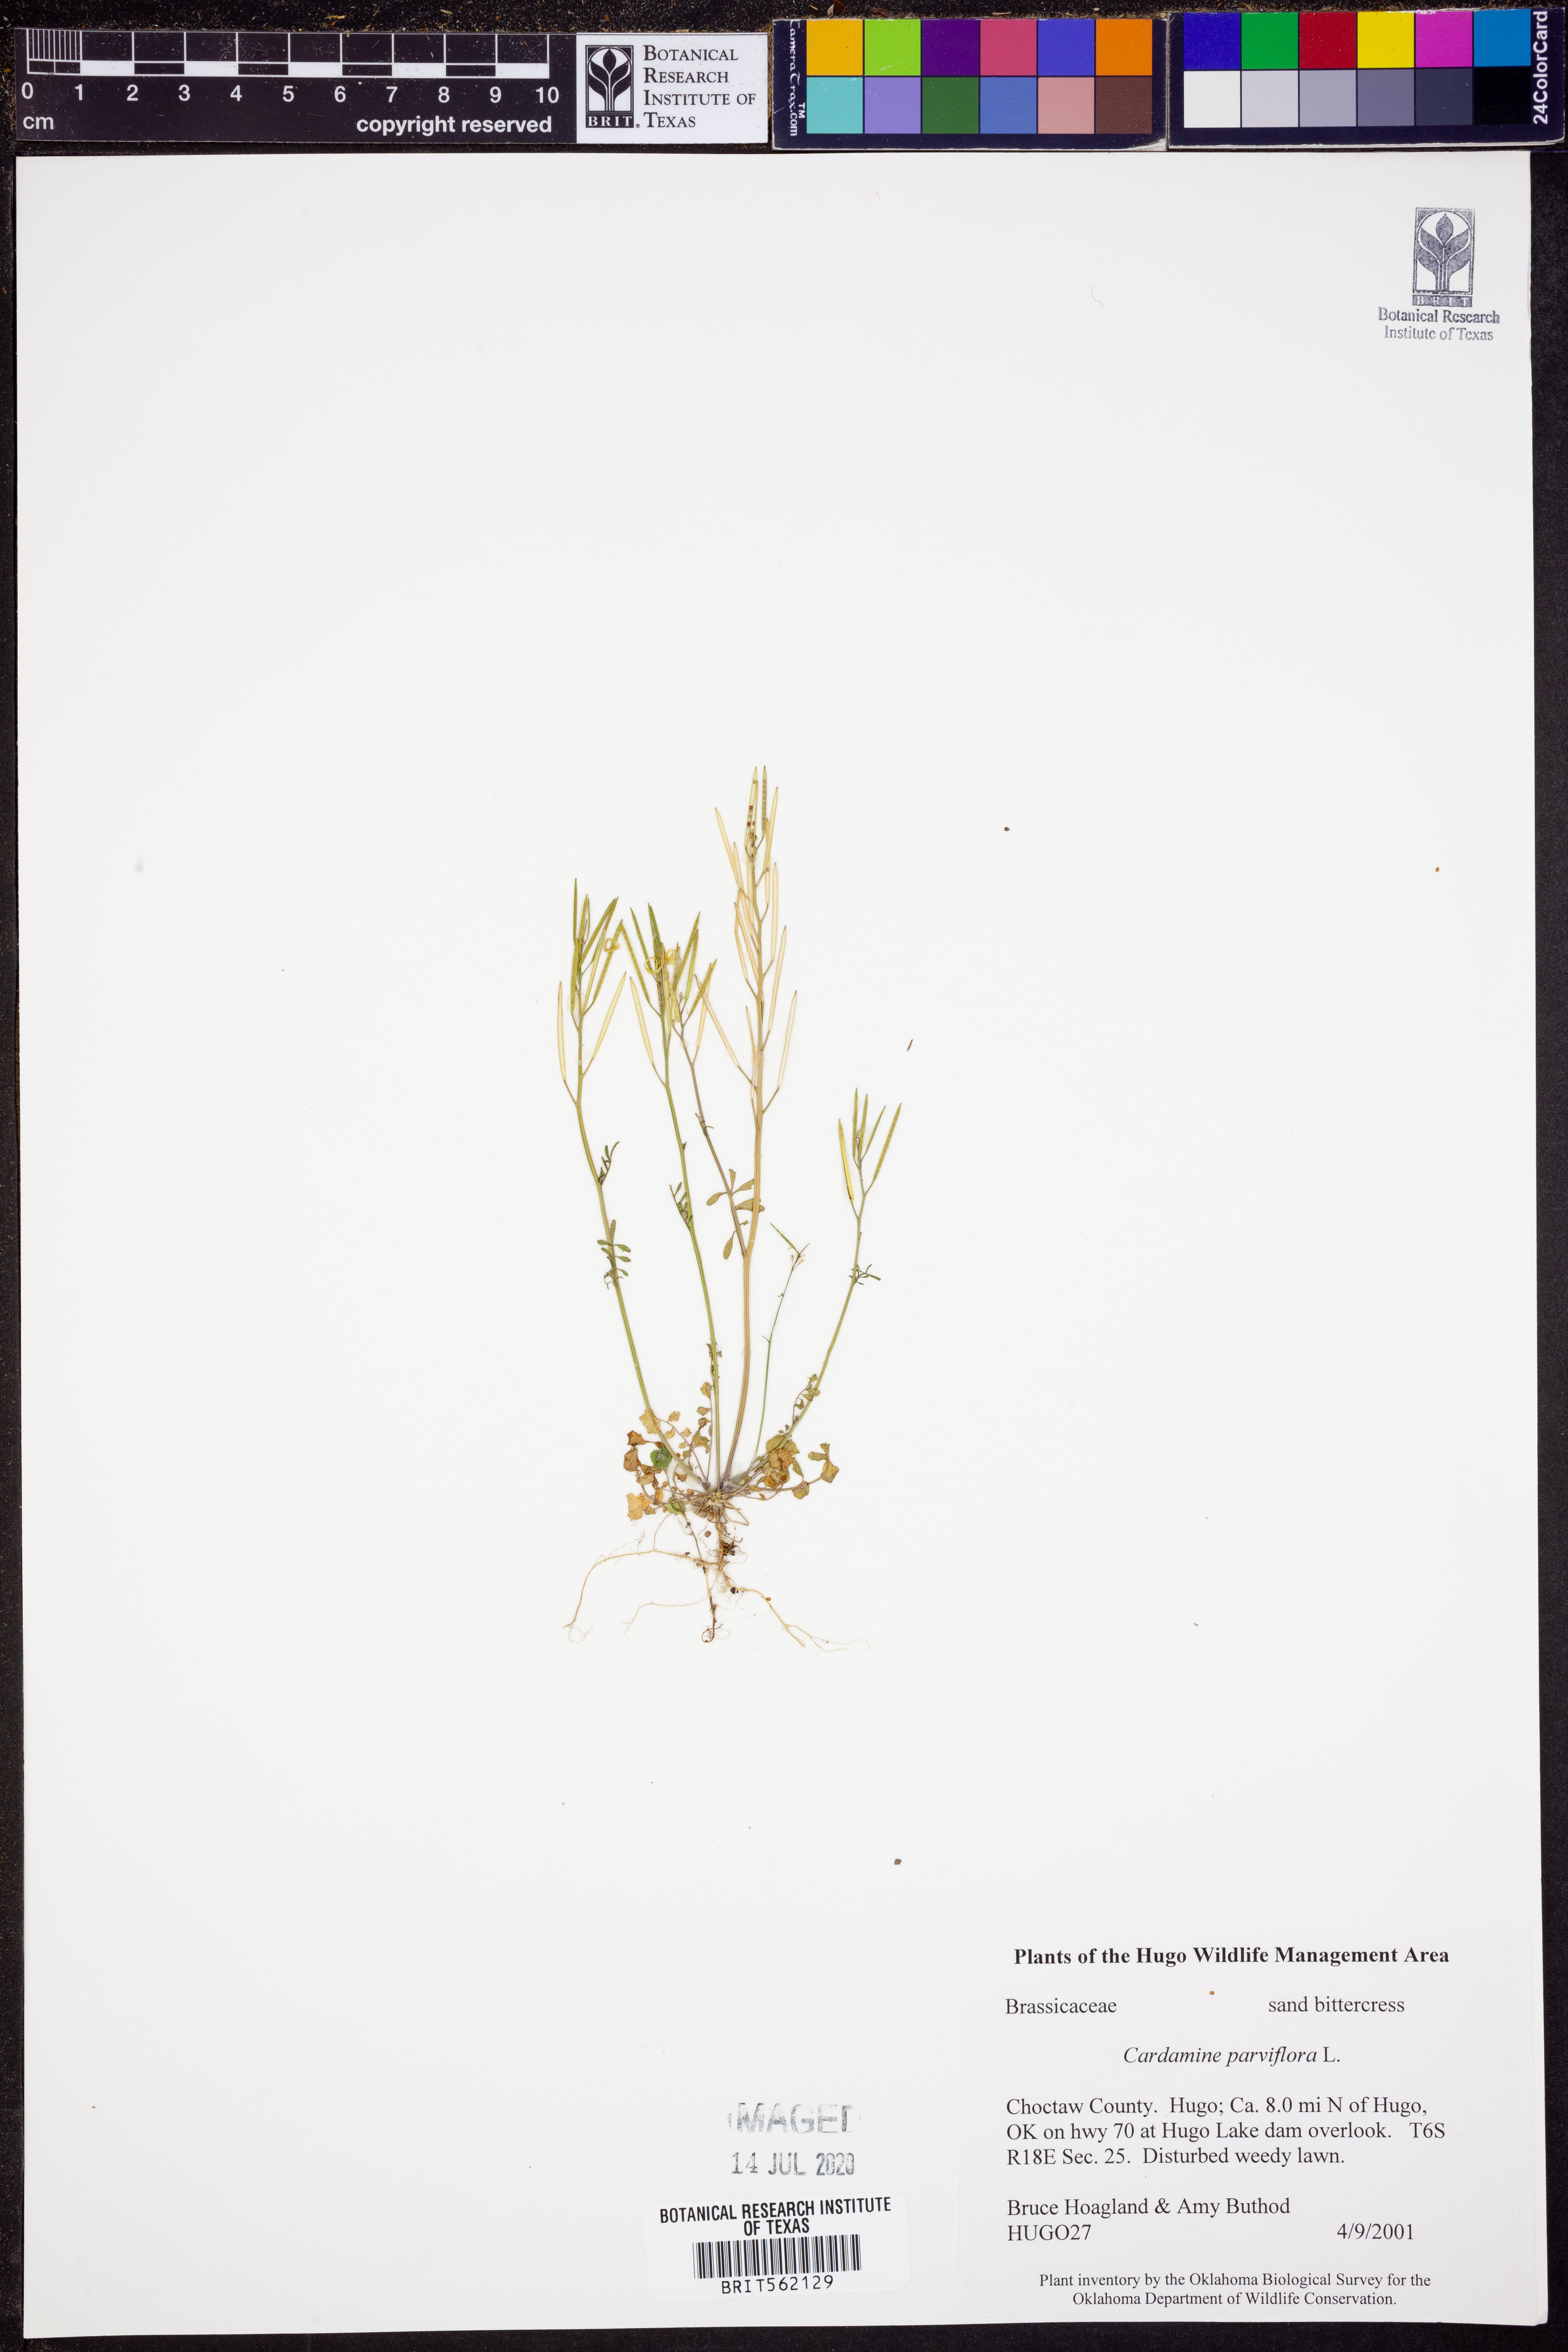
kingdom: Plantae
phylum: Tracheophyta
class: Magnoliopsida
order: Brassicales
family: Brassicaceae
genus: Cardamine
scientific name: Cardamine parviflora
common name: Sand bittercress
